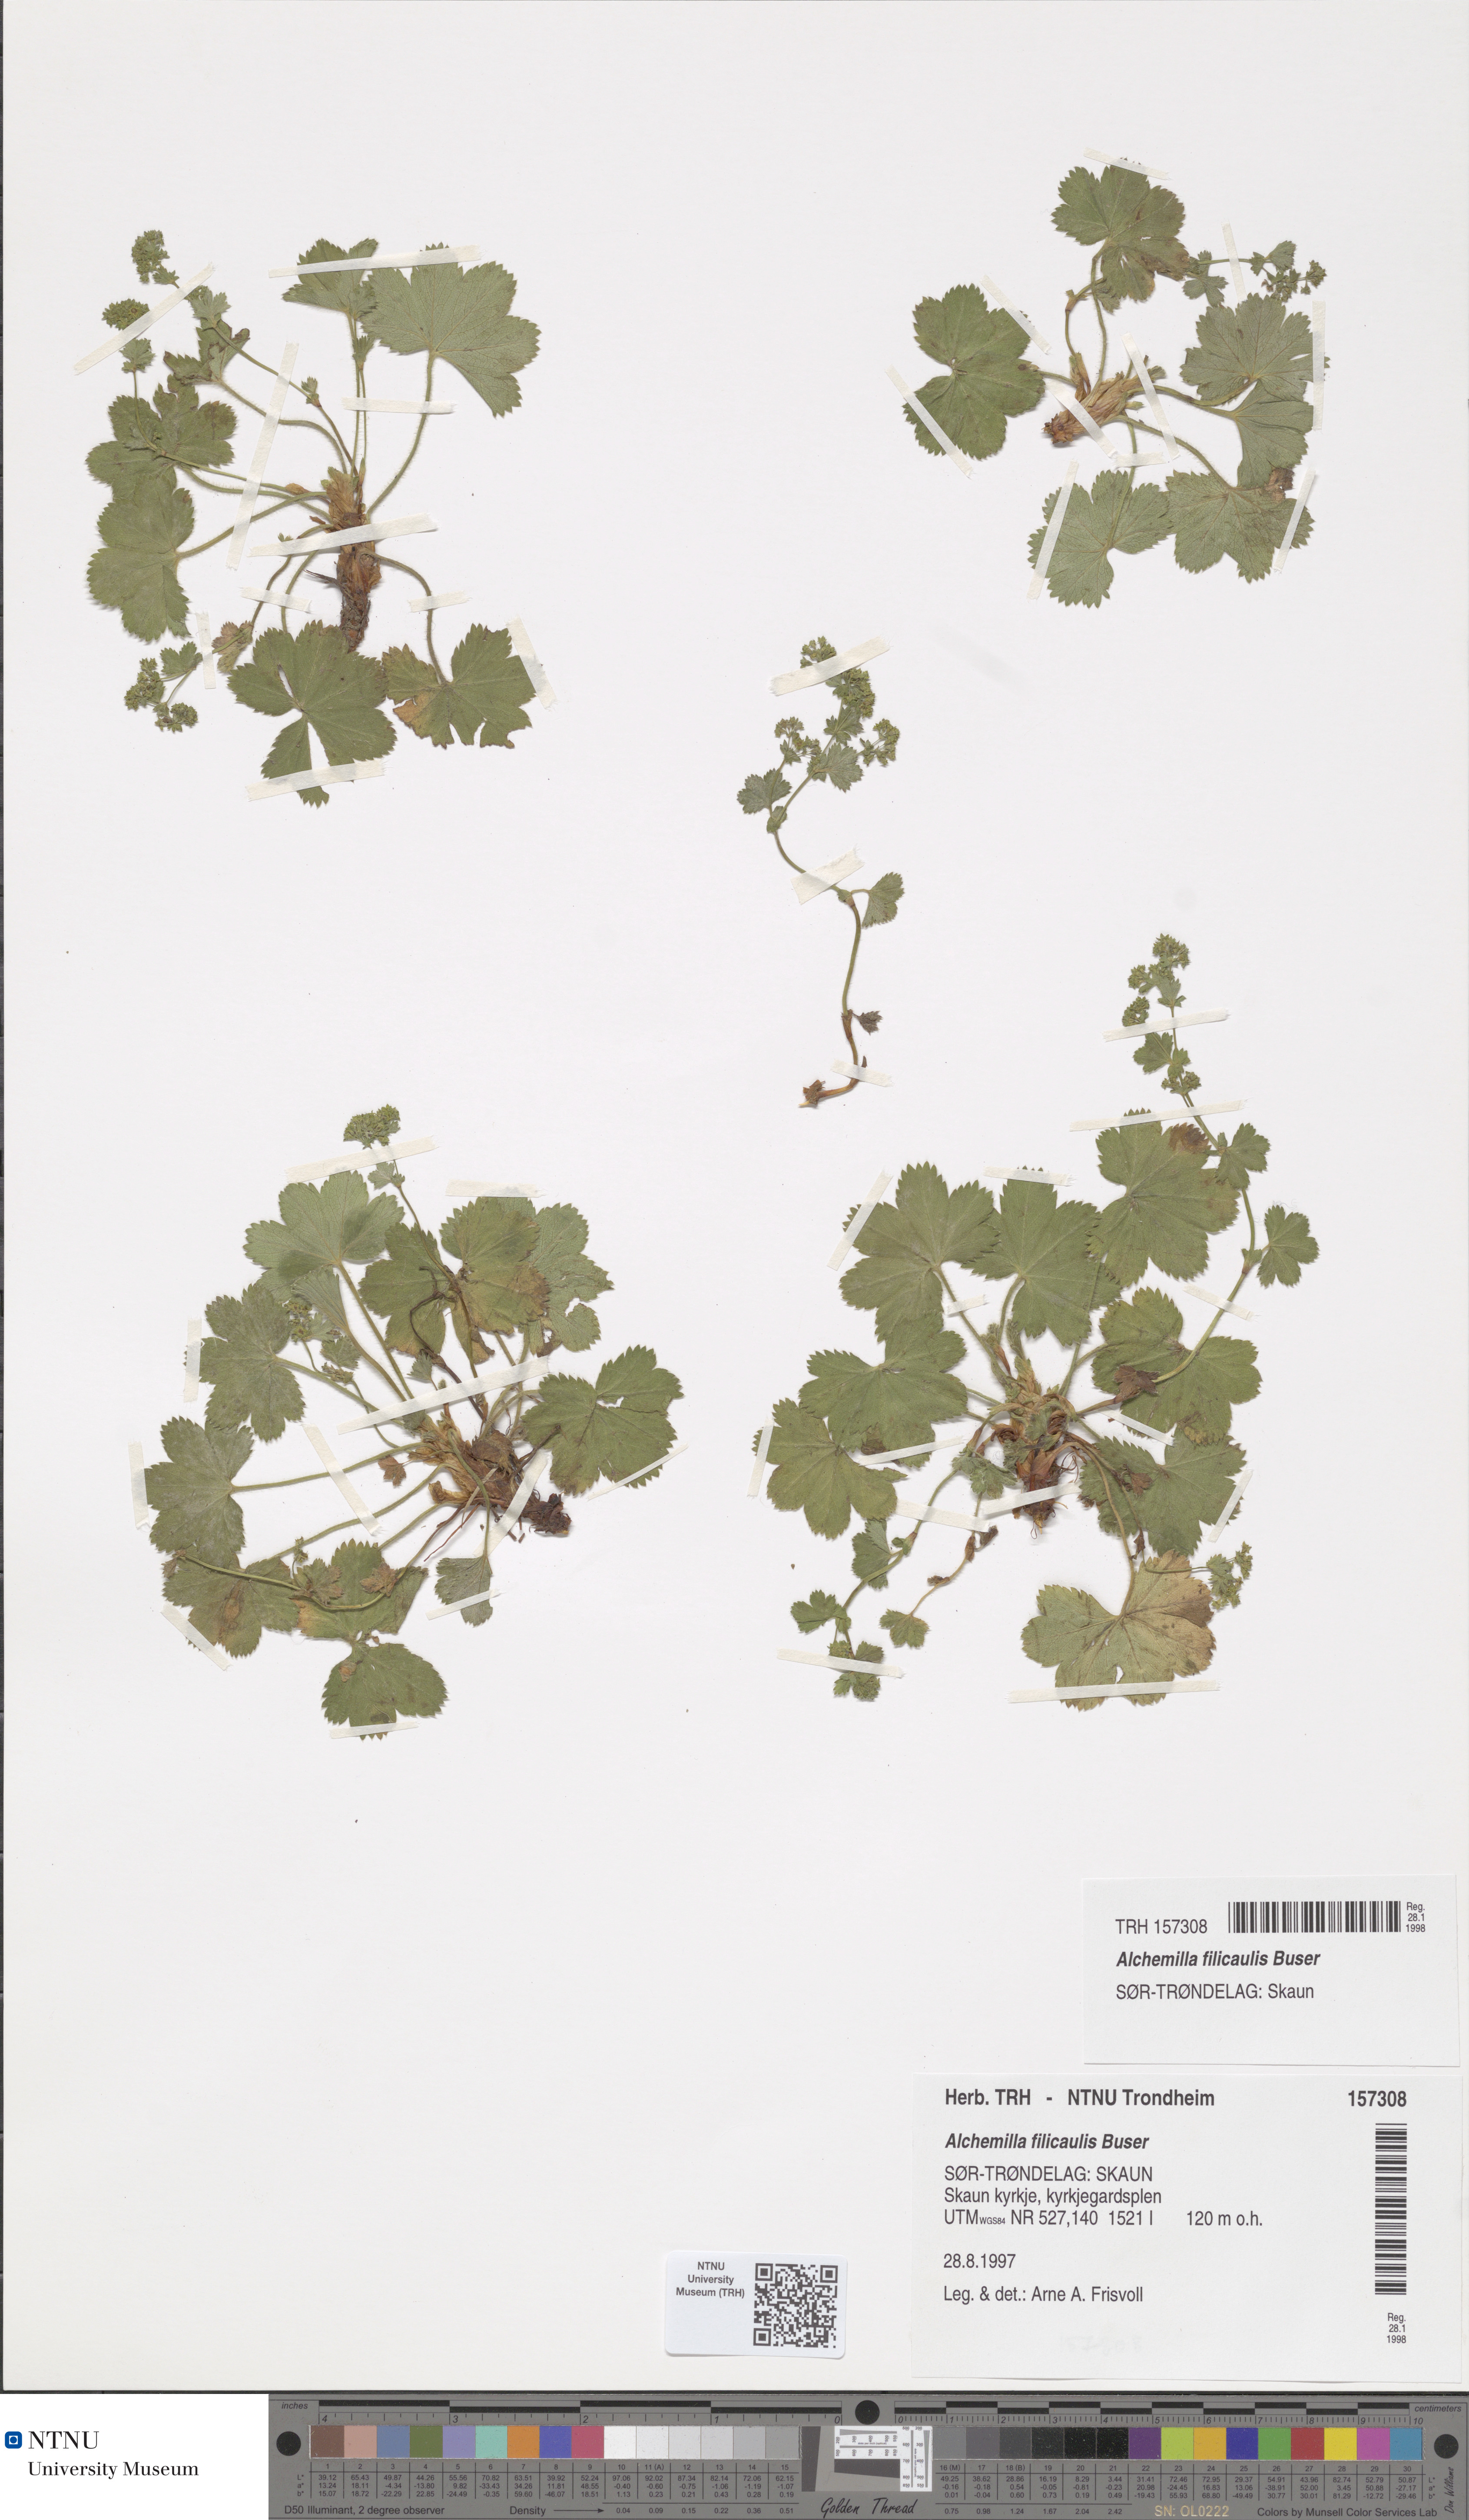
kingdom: Plantae
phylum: Tracheophyta
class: Magnoliopsida
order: Rosales
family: Rosaceae
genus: Alchemilla
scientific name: Alchemilla filicaulis
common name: Hairy lady's-mantle
